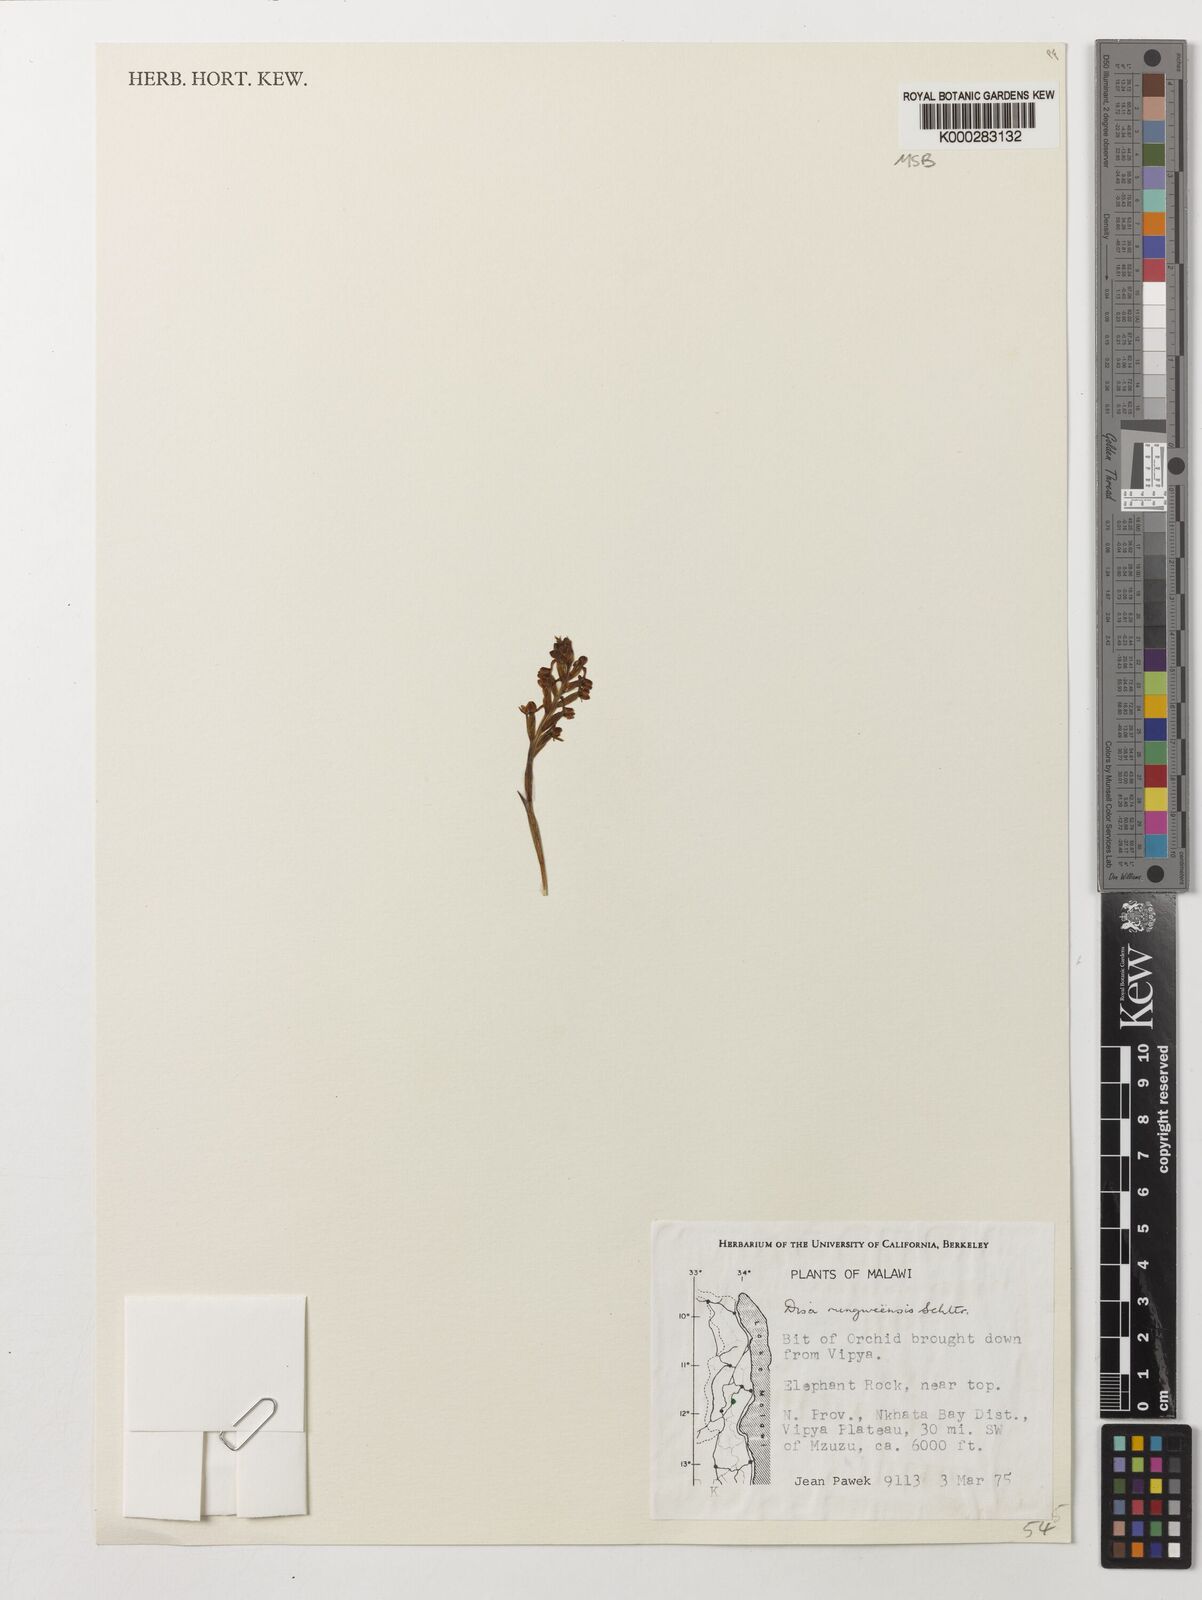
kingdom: Plantae
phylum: Tracheophyta
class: Liliopsida
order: Asparagales
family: Orchidaceae
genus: Disa
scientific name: Disa rungweensis
